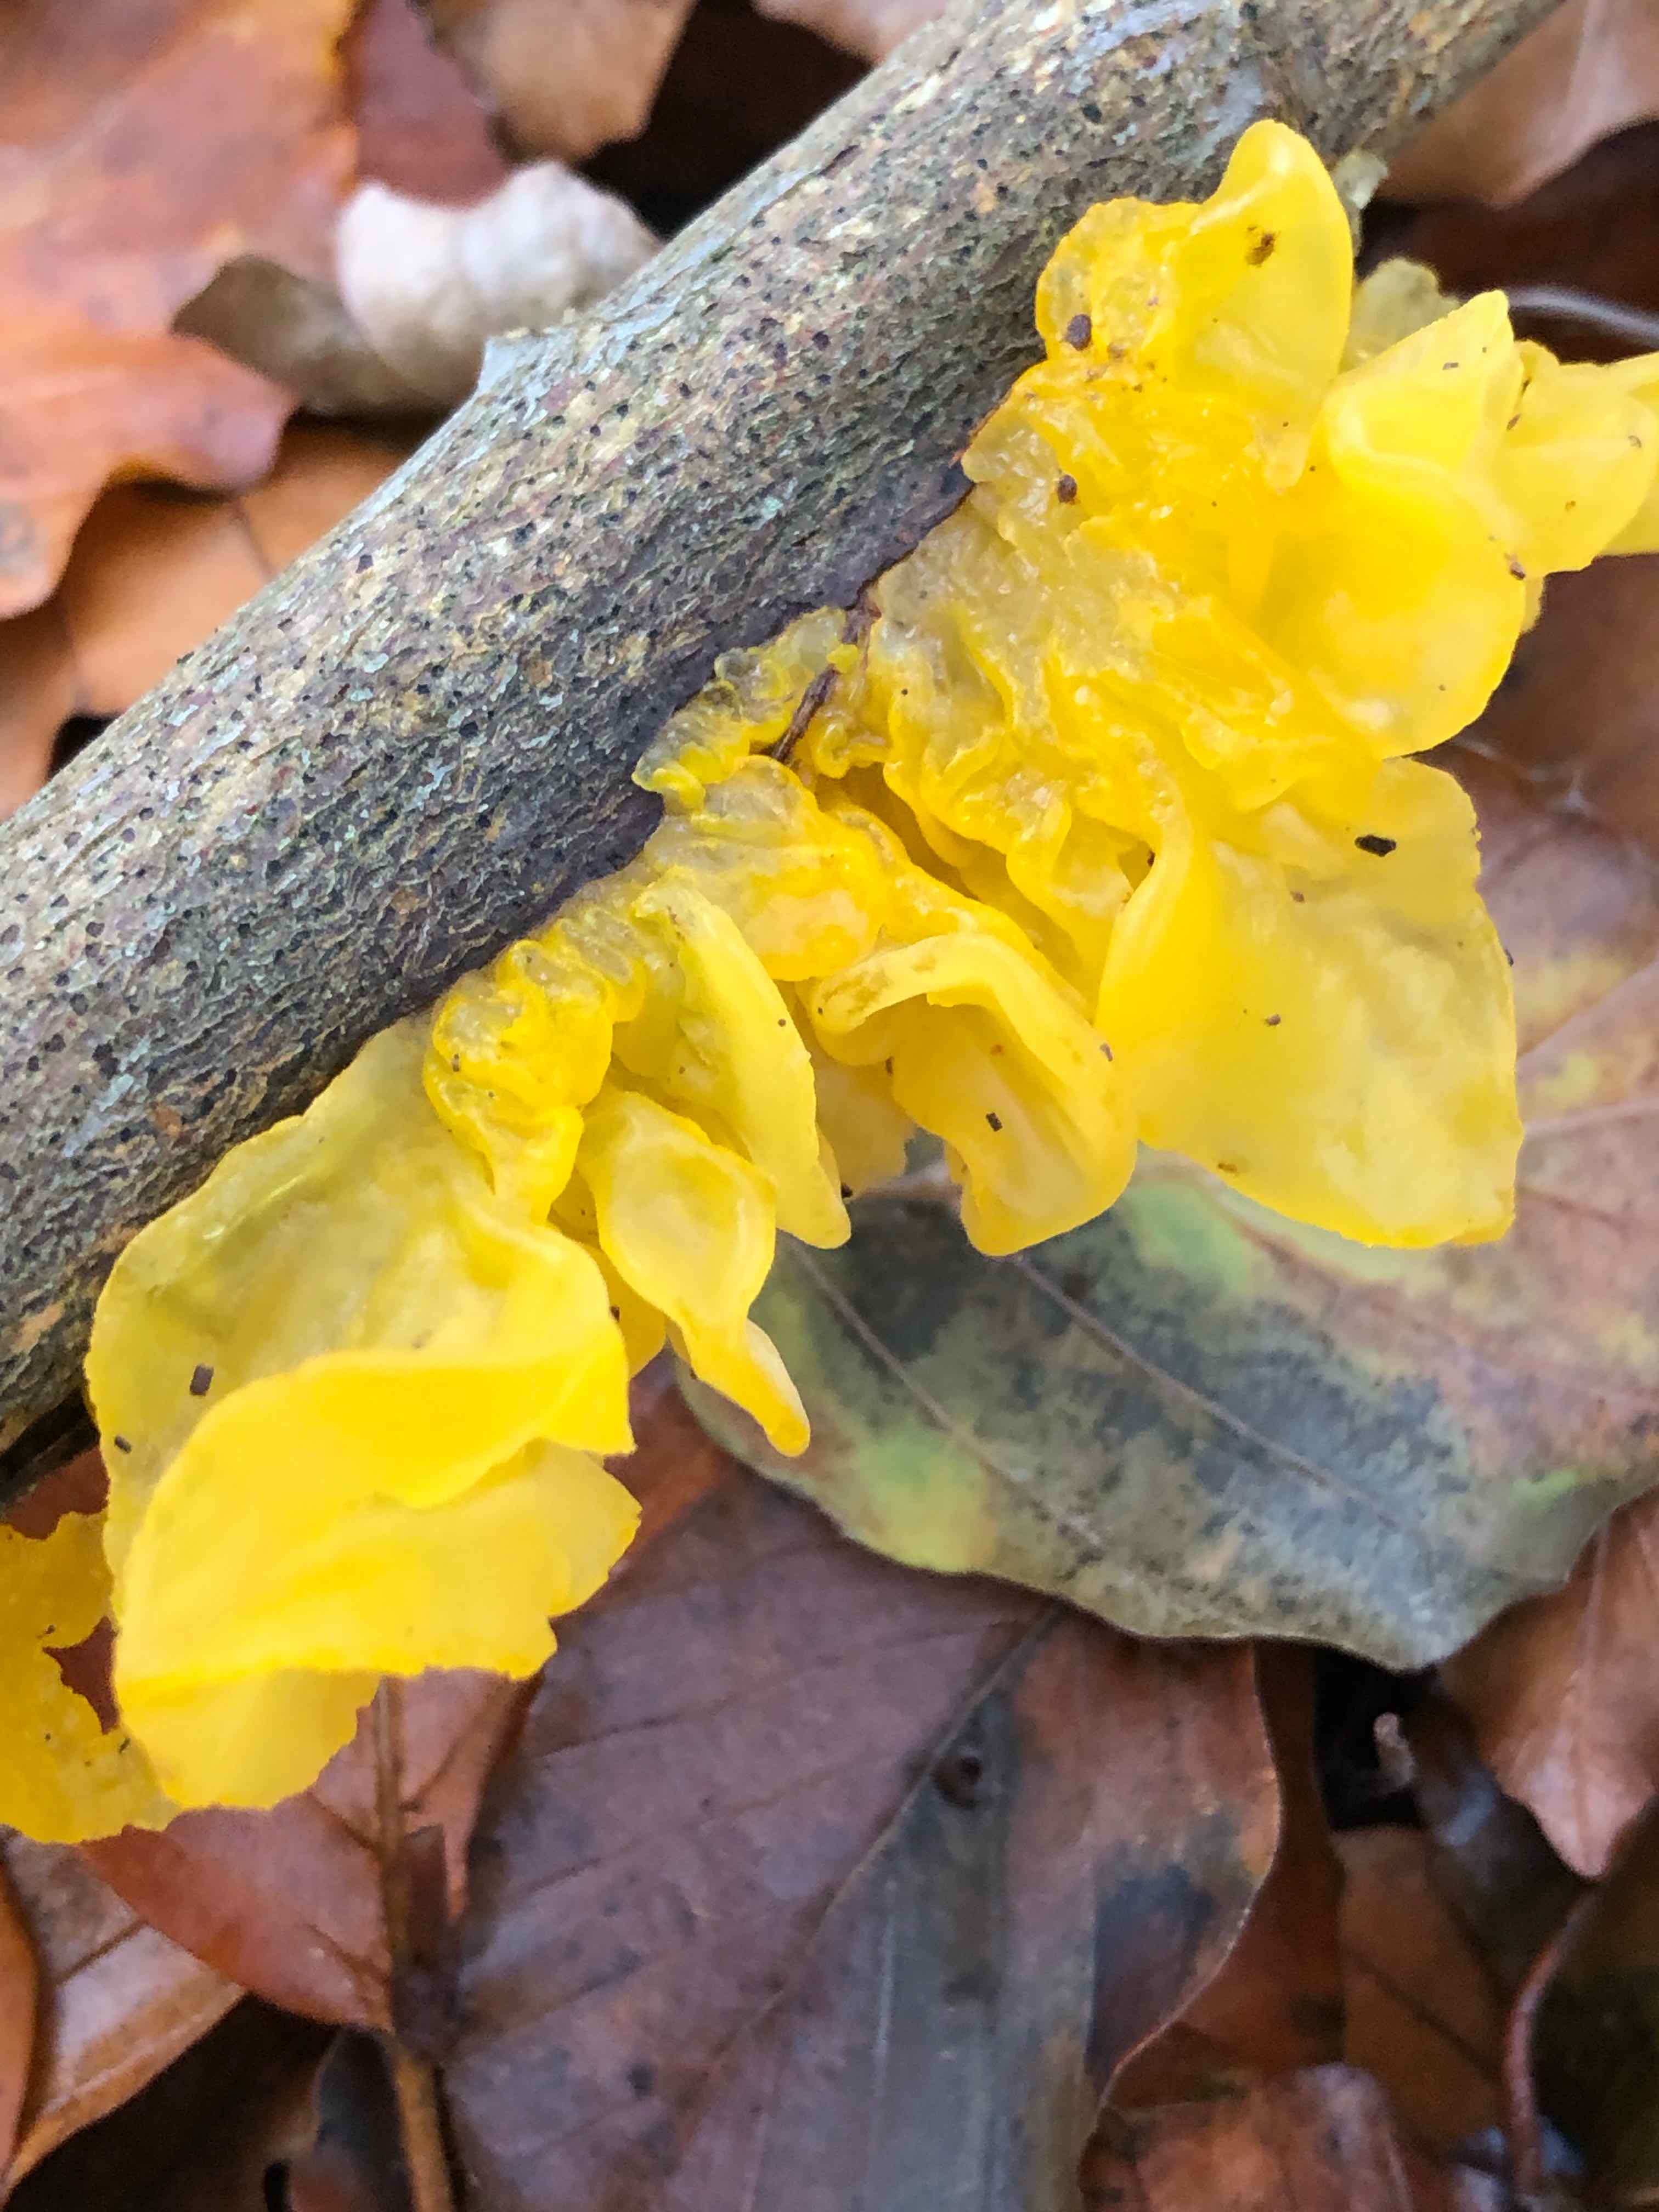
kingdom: Fungi
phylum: Basidiomycota
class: Tremellomycetes
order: Tremellales
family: Tremellaceae
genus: Tremella
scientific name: Tremella mesenterica
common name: gul bævresvamp
